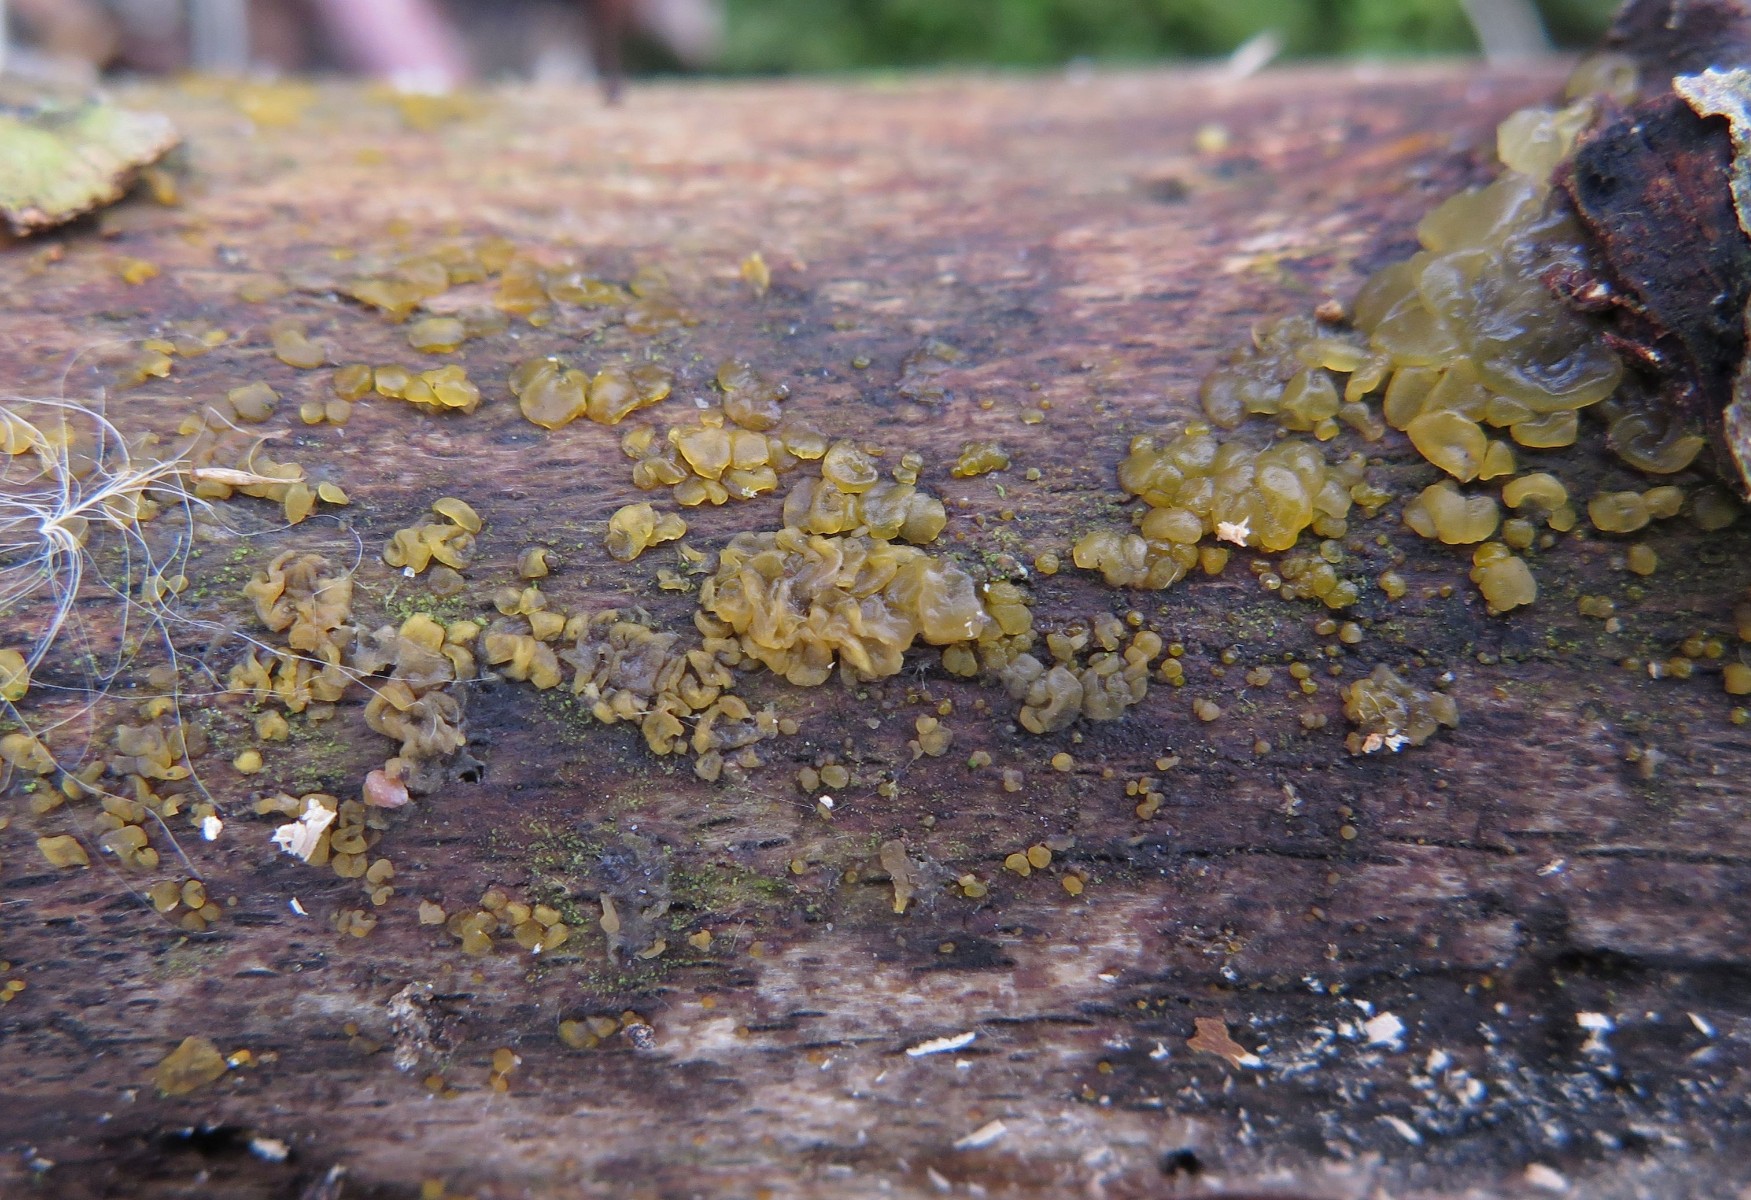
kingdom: Fungi
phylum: Basidiomycota
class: Dacrymycetes
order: Dacrymycetales
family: Dacrymycetaceae
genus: Dacrymyces
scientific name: Dacrymyces lacrymalis
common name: rynket tåresvamp
